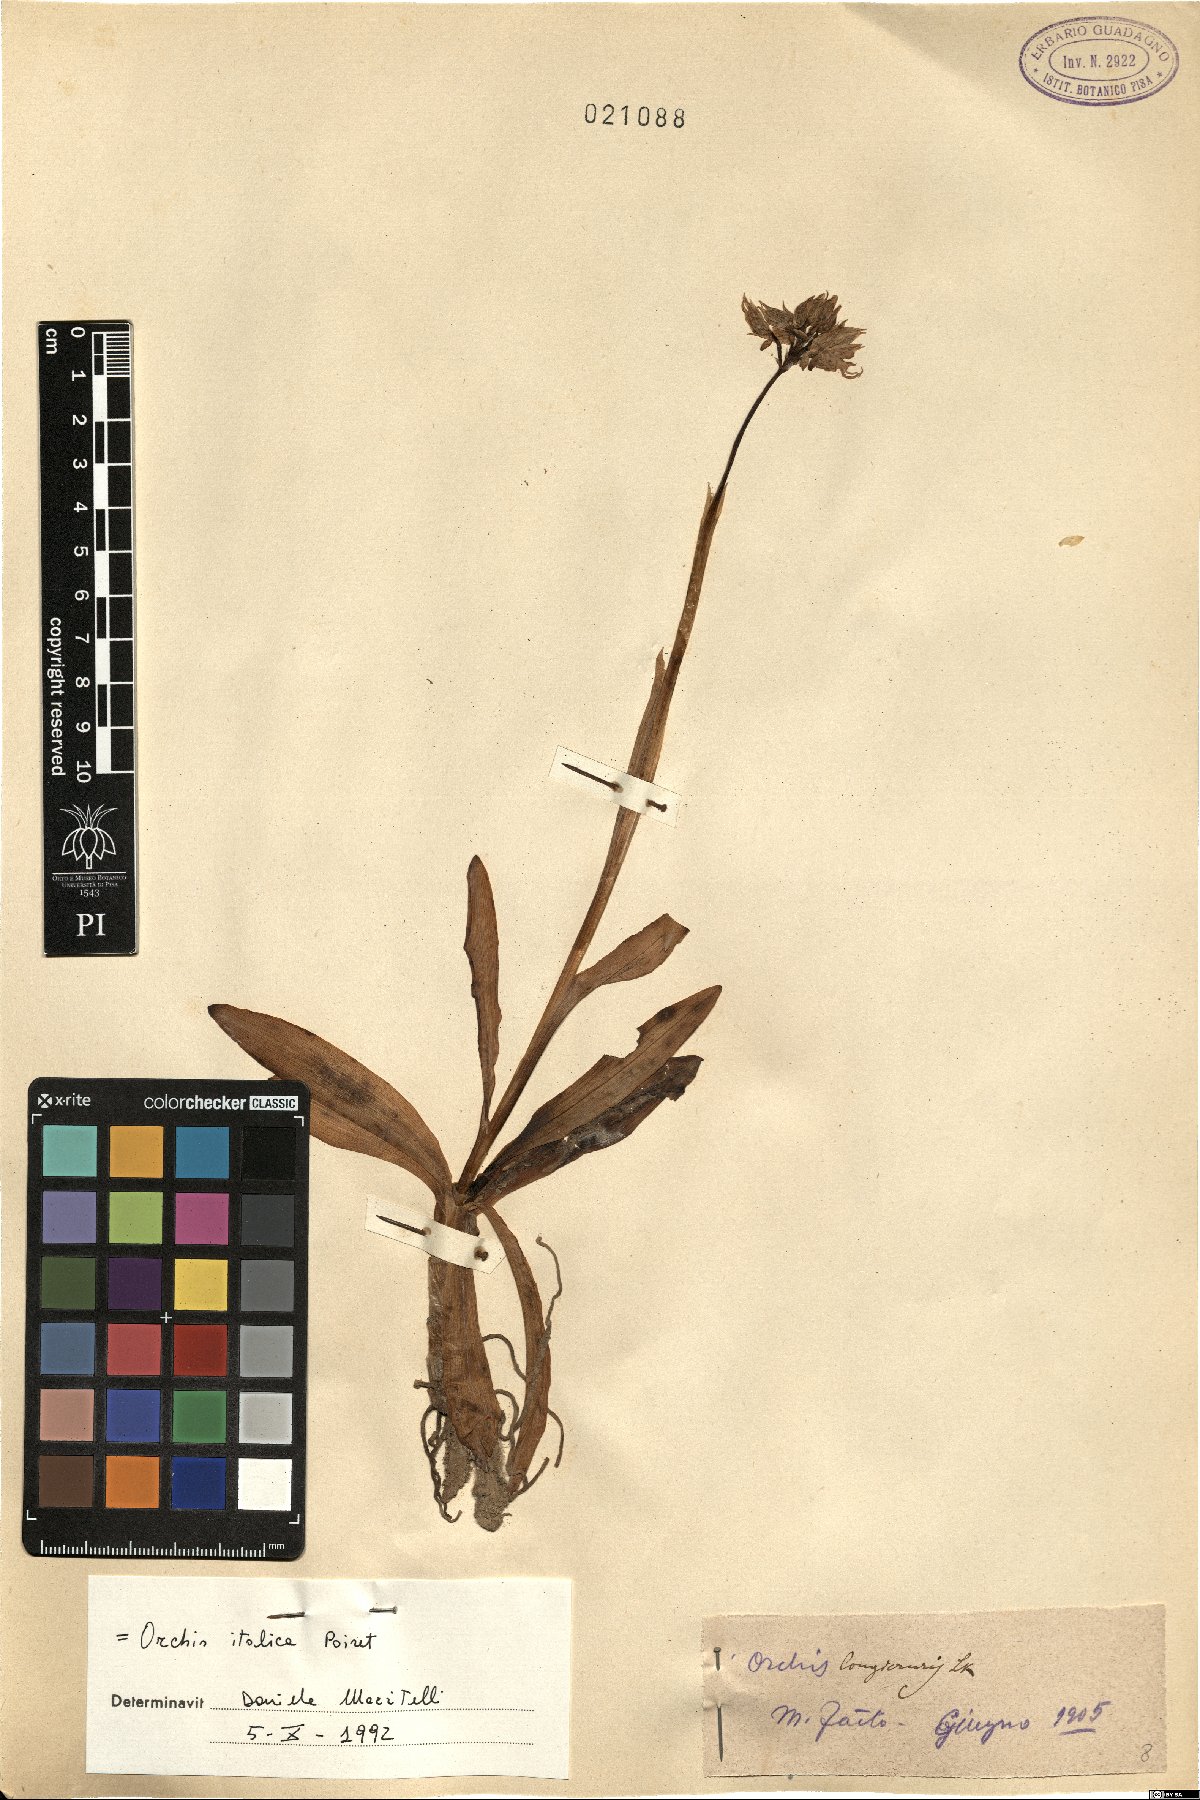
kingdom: Plantae
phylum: Tracheophyta
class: Liliopsida
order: Asparagales
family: Orchidaceae
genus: Orchis
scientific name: Orchis italica
